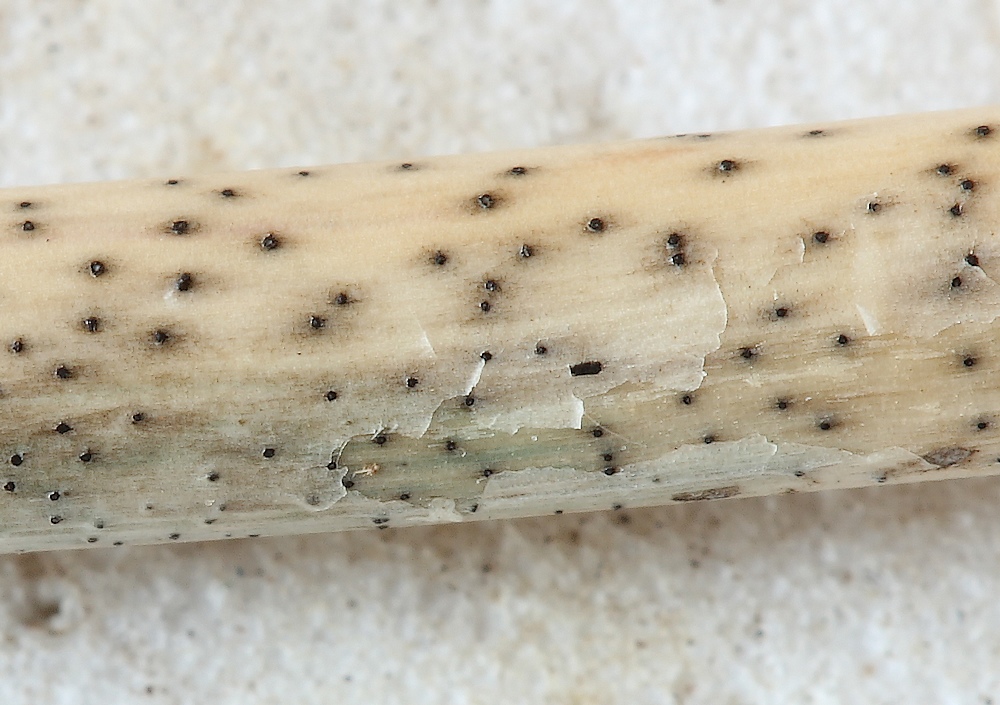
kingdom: Fungi
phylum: Ascomycota
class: Dothideomycetes
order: Pleosporales
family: Didymosphaeriaceae
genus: Montagnula
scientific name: Montagnula perforans
